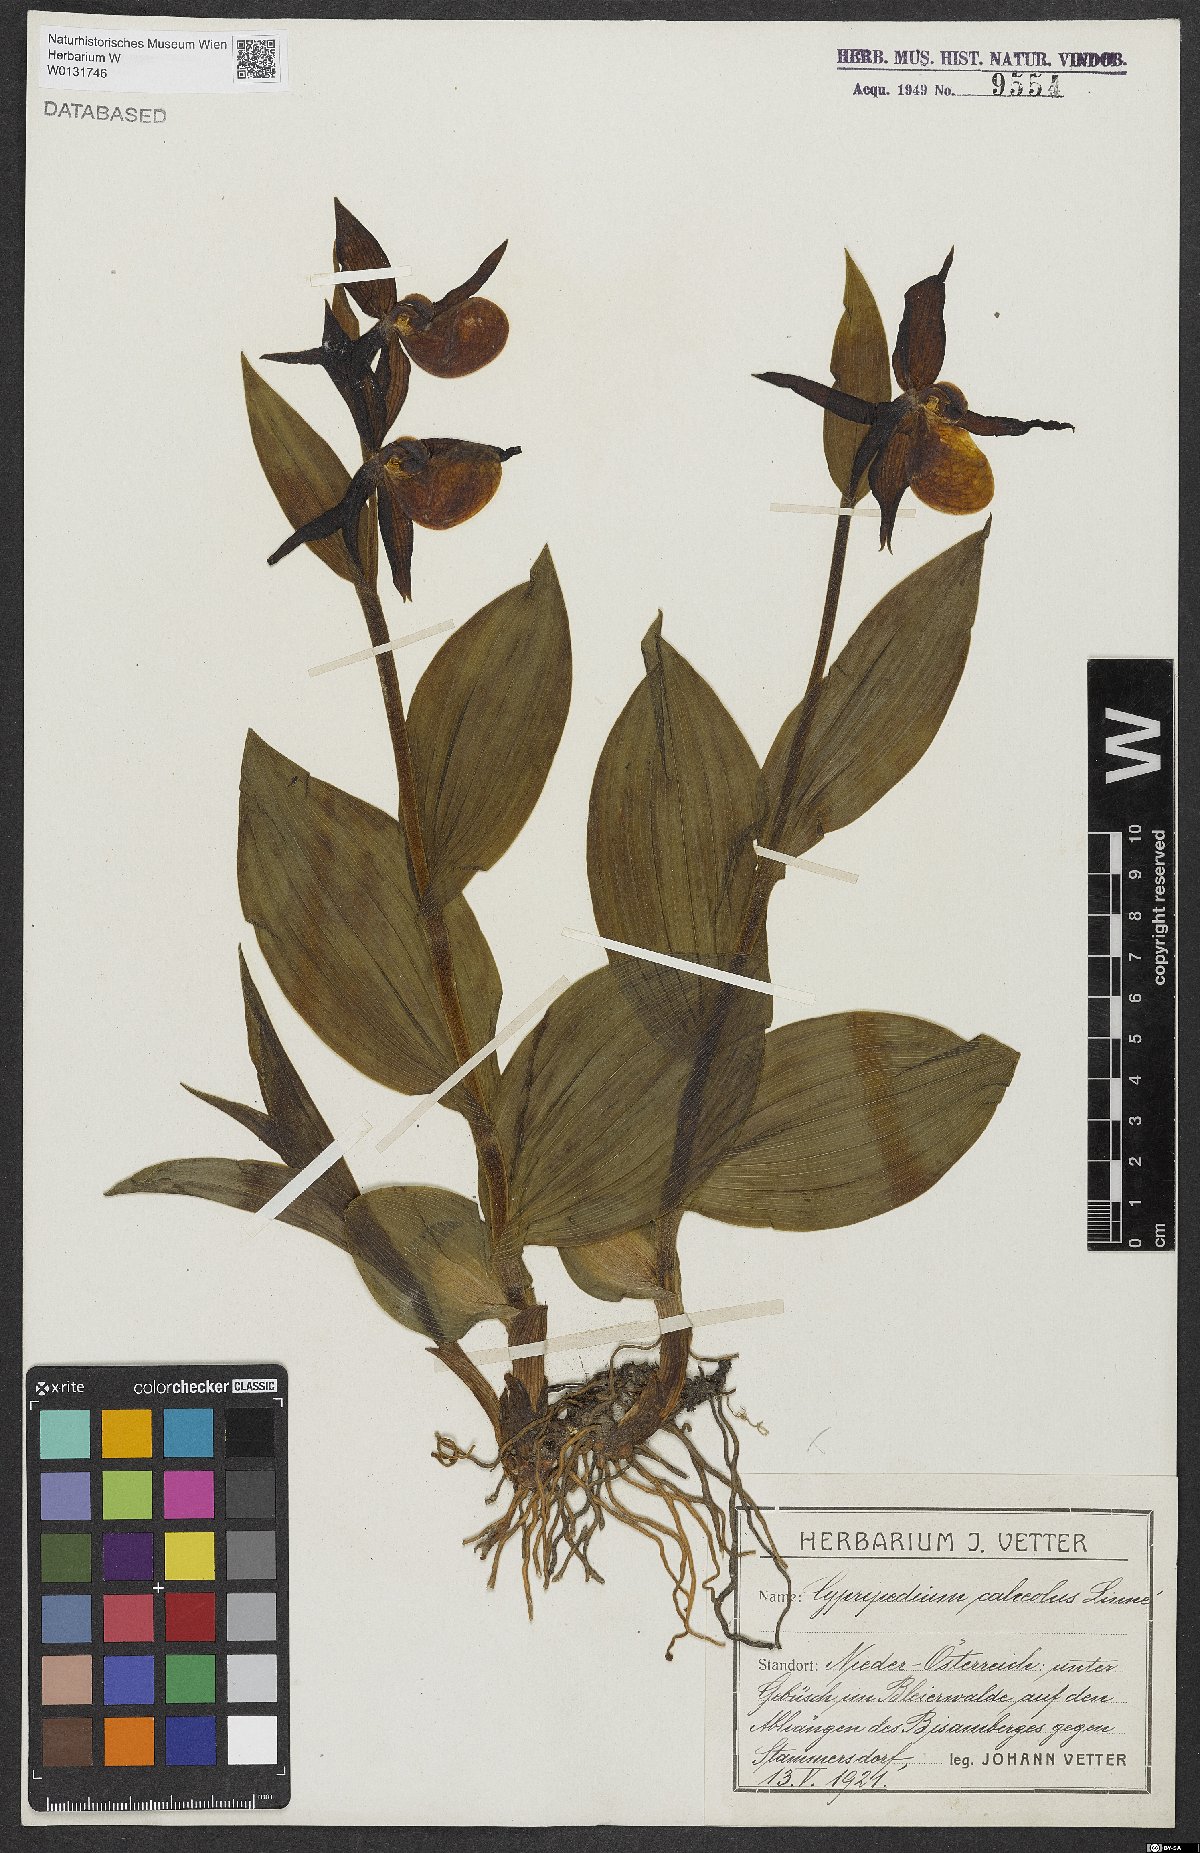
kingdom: Plantae
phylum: Tracheophyta
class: Liliopsida
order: Asparagales
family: Orchidaceae
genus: Cypripedium
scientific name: Cypripedium calceolus
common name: Lady's-slipper
